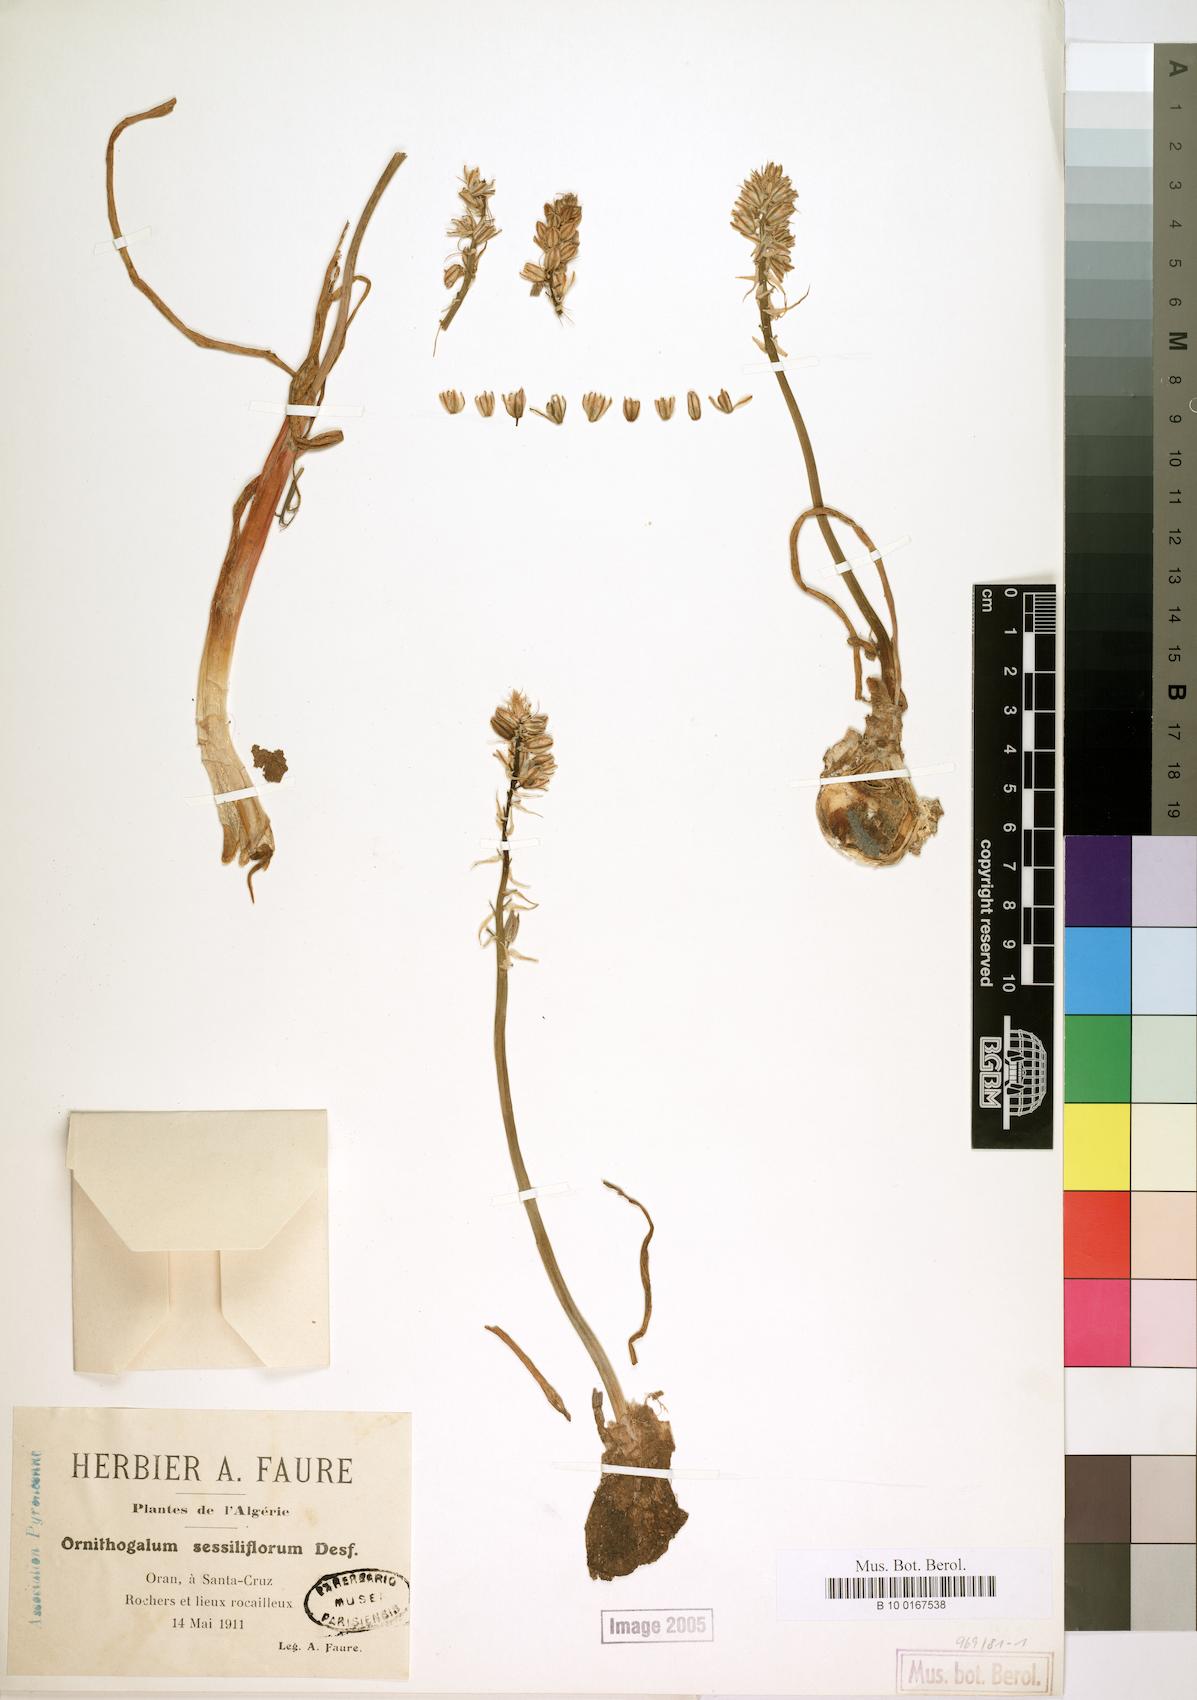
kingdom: Plantae
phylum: Tracheophyta
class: Liliopsida
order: Asparagales
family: Asparagaceae
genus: Ornithogalum
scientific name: Ornithogalum sessiliflorum
